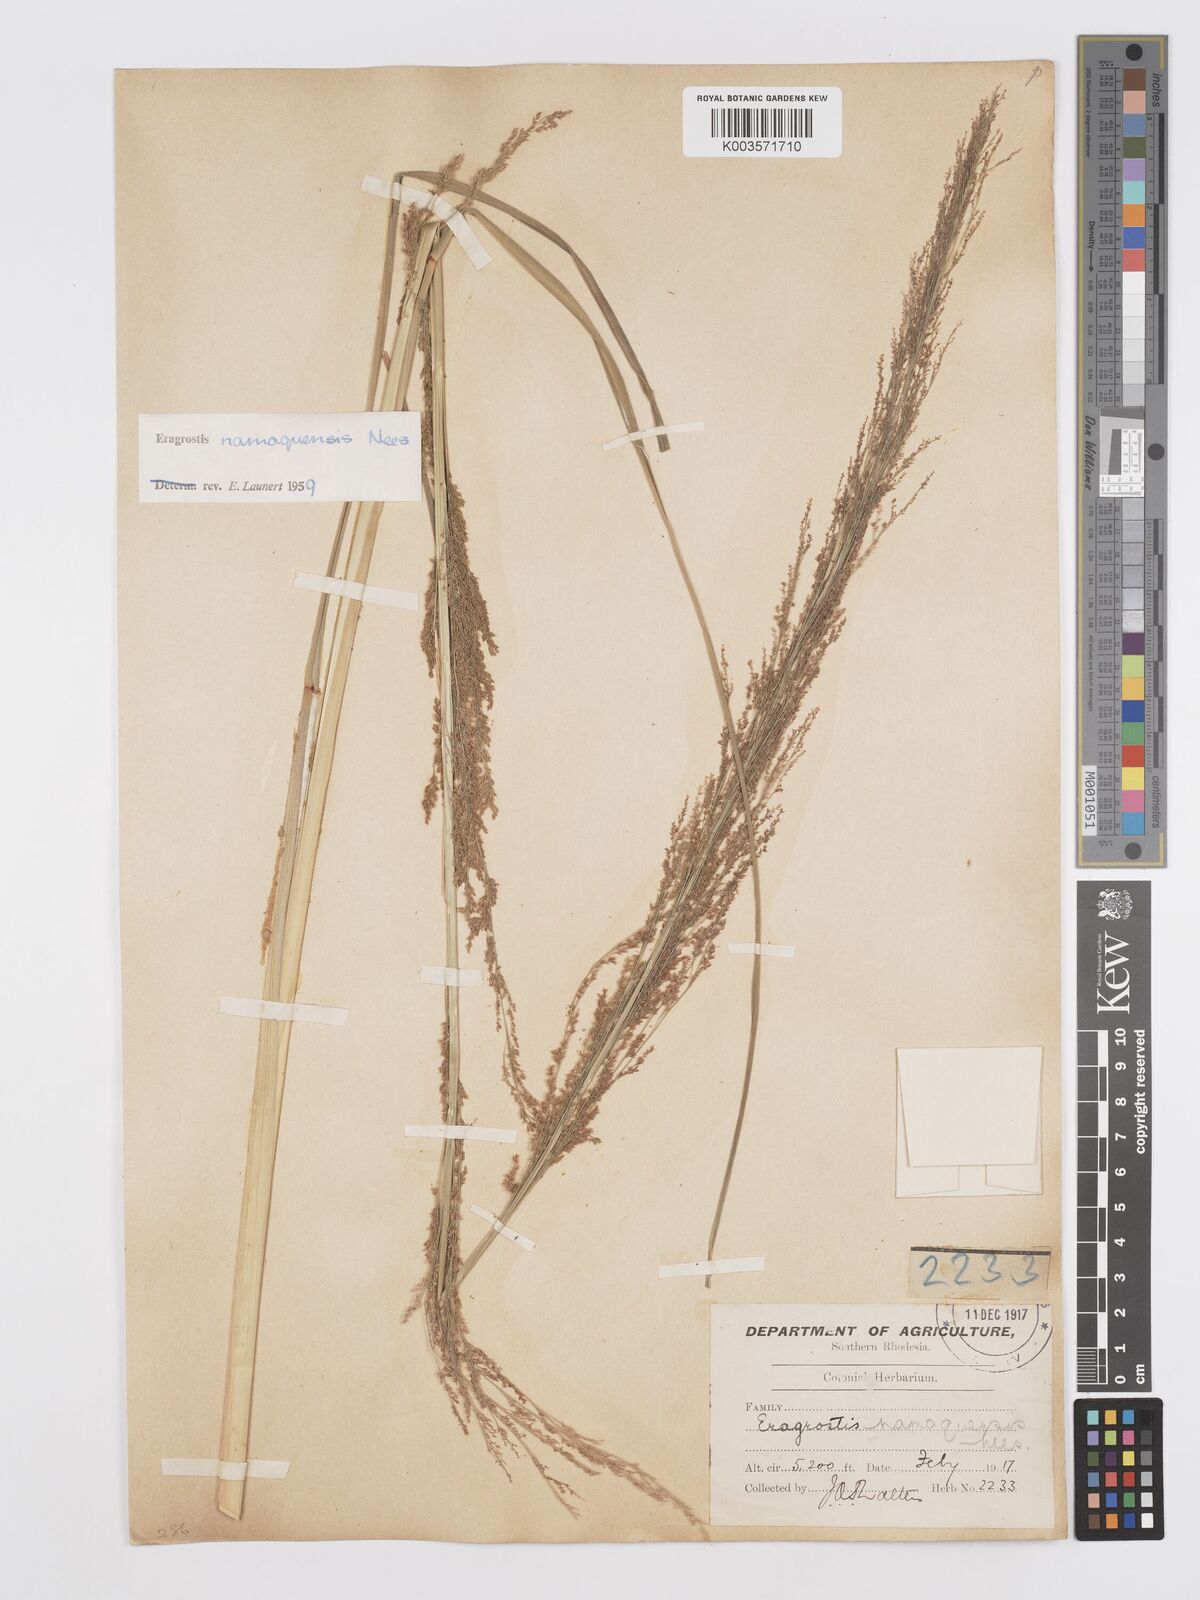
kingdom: Plantae
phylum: Tracheophyta
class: Liliopsida
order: Poales
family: Poaceae
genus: Eragrostis
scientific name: Eragrostis japonica
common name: Pond lovegrass
